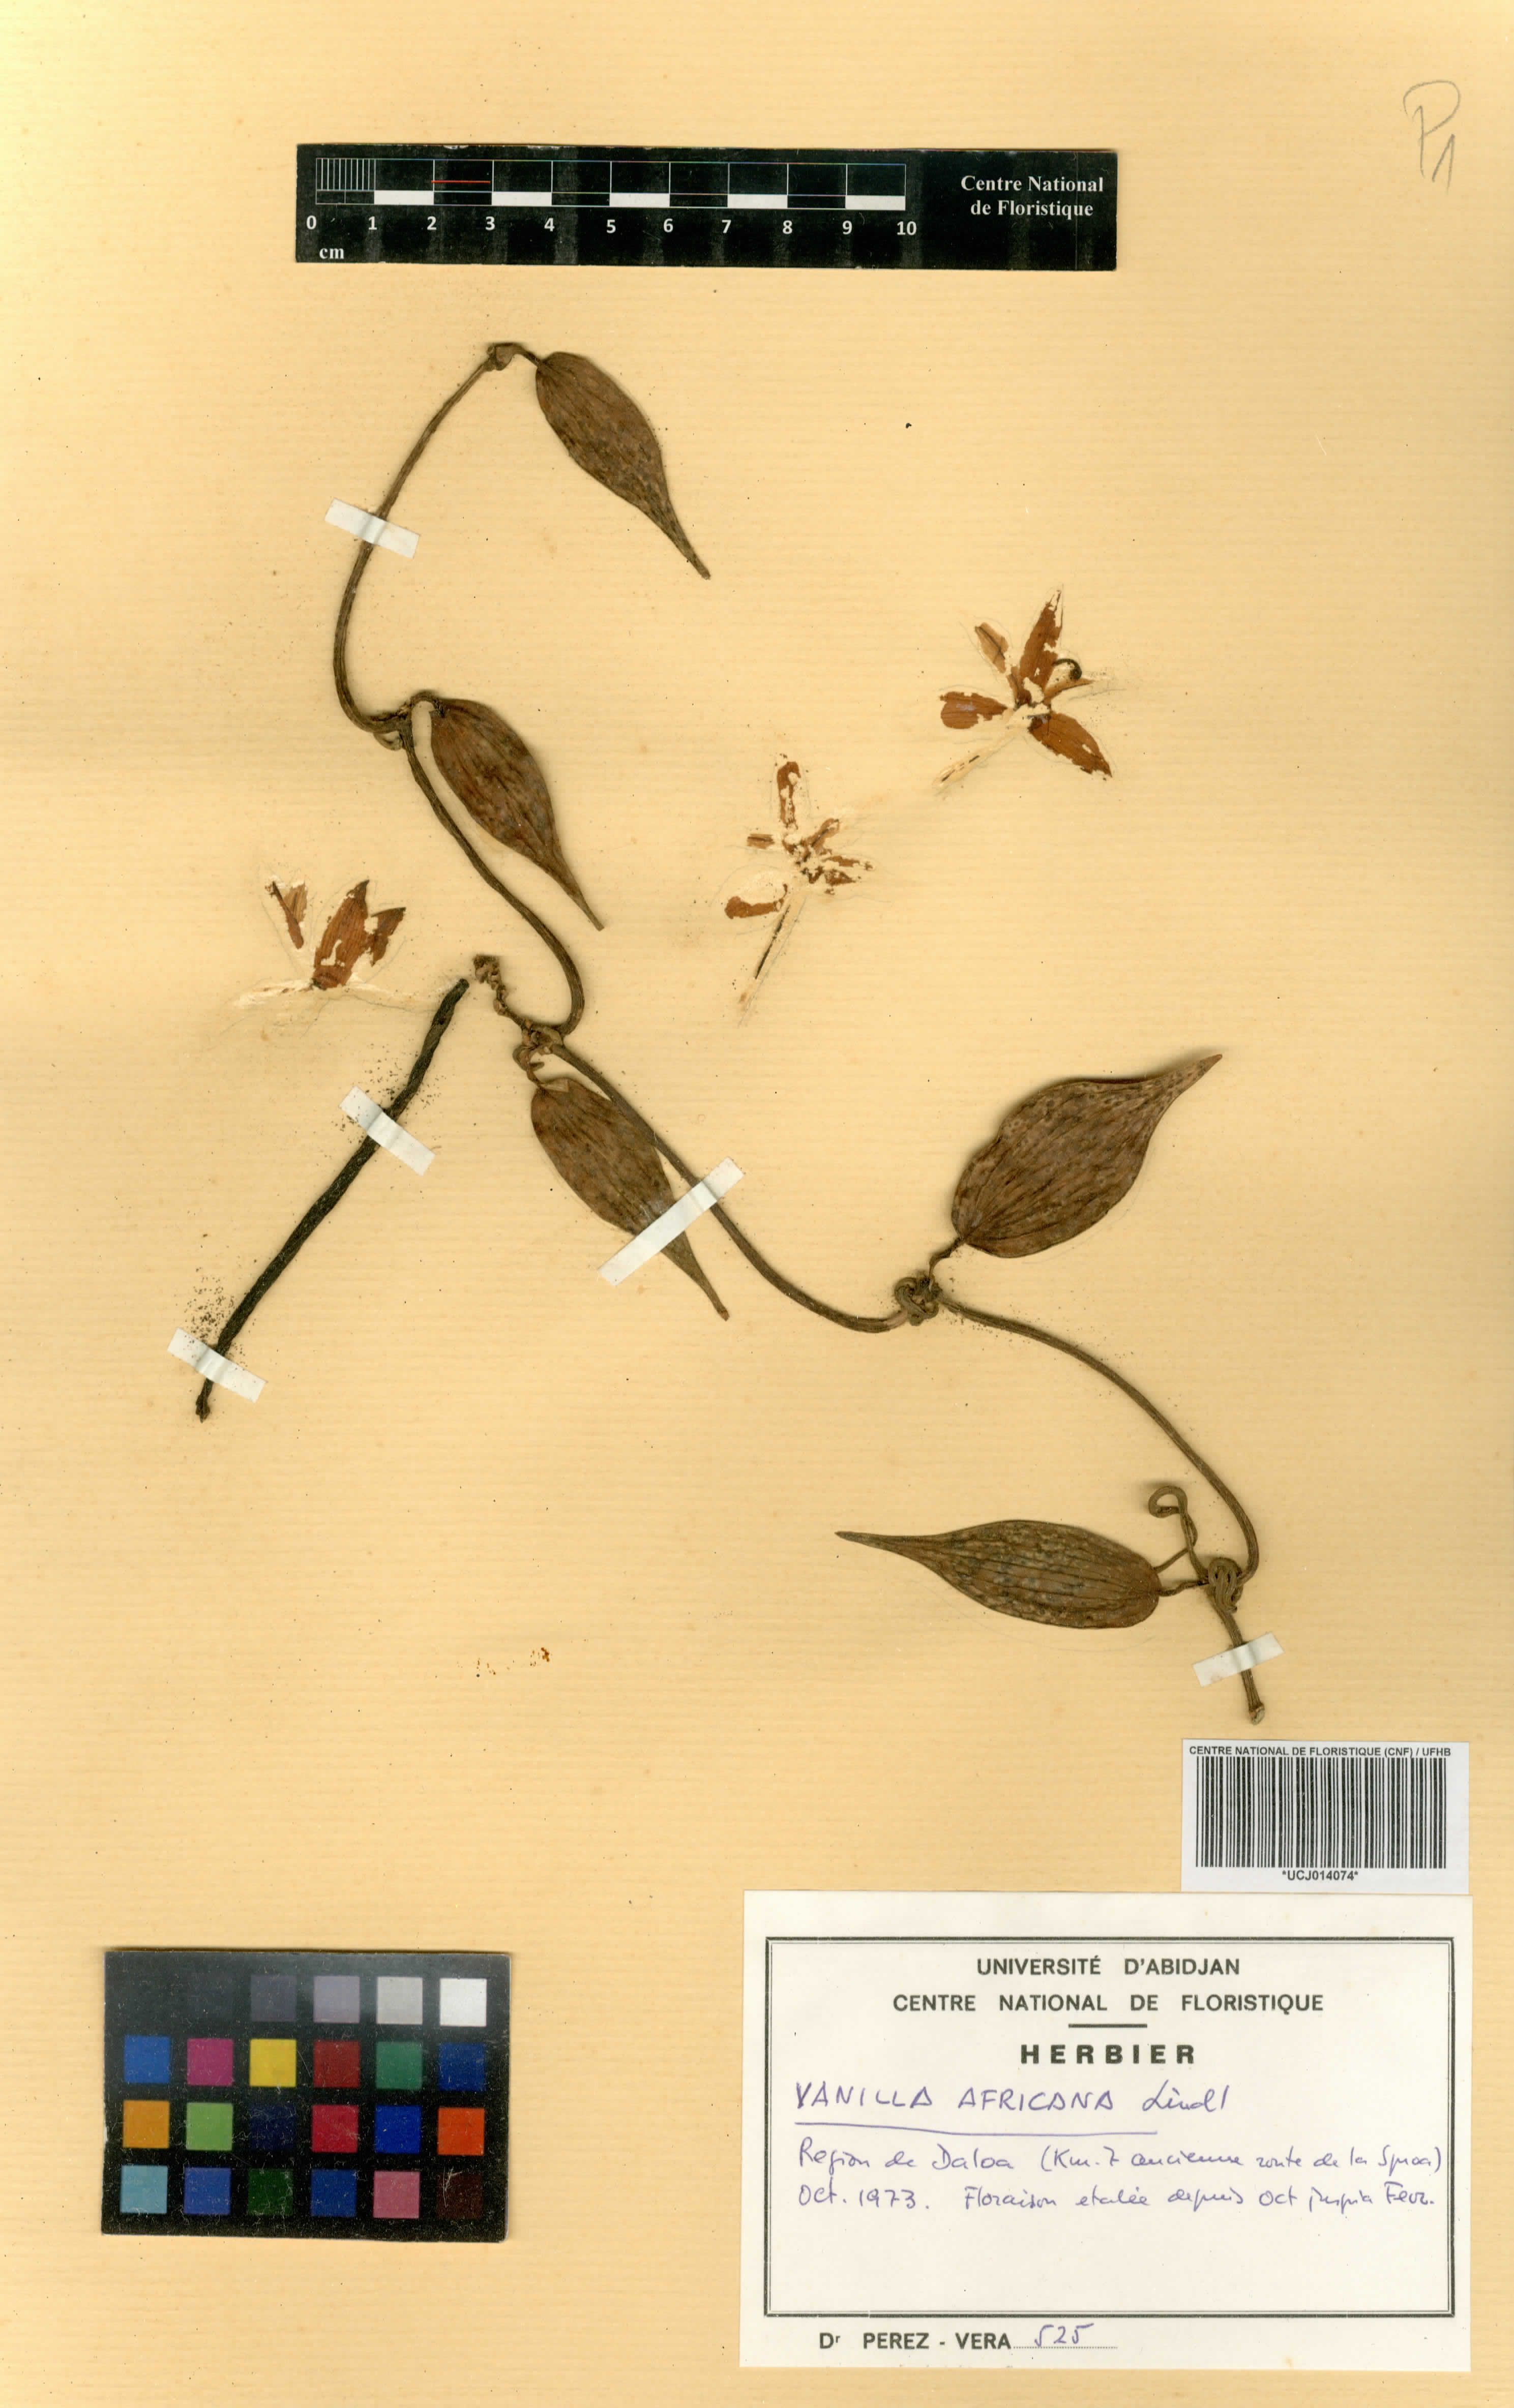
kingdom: Plantae
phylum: Tracheophyta
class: Liliopsida
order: Asparagales
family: Orchidaceae
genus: Vanilla
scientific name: Vanilla africana
